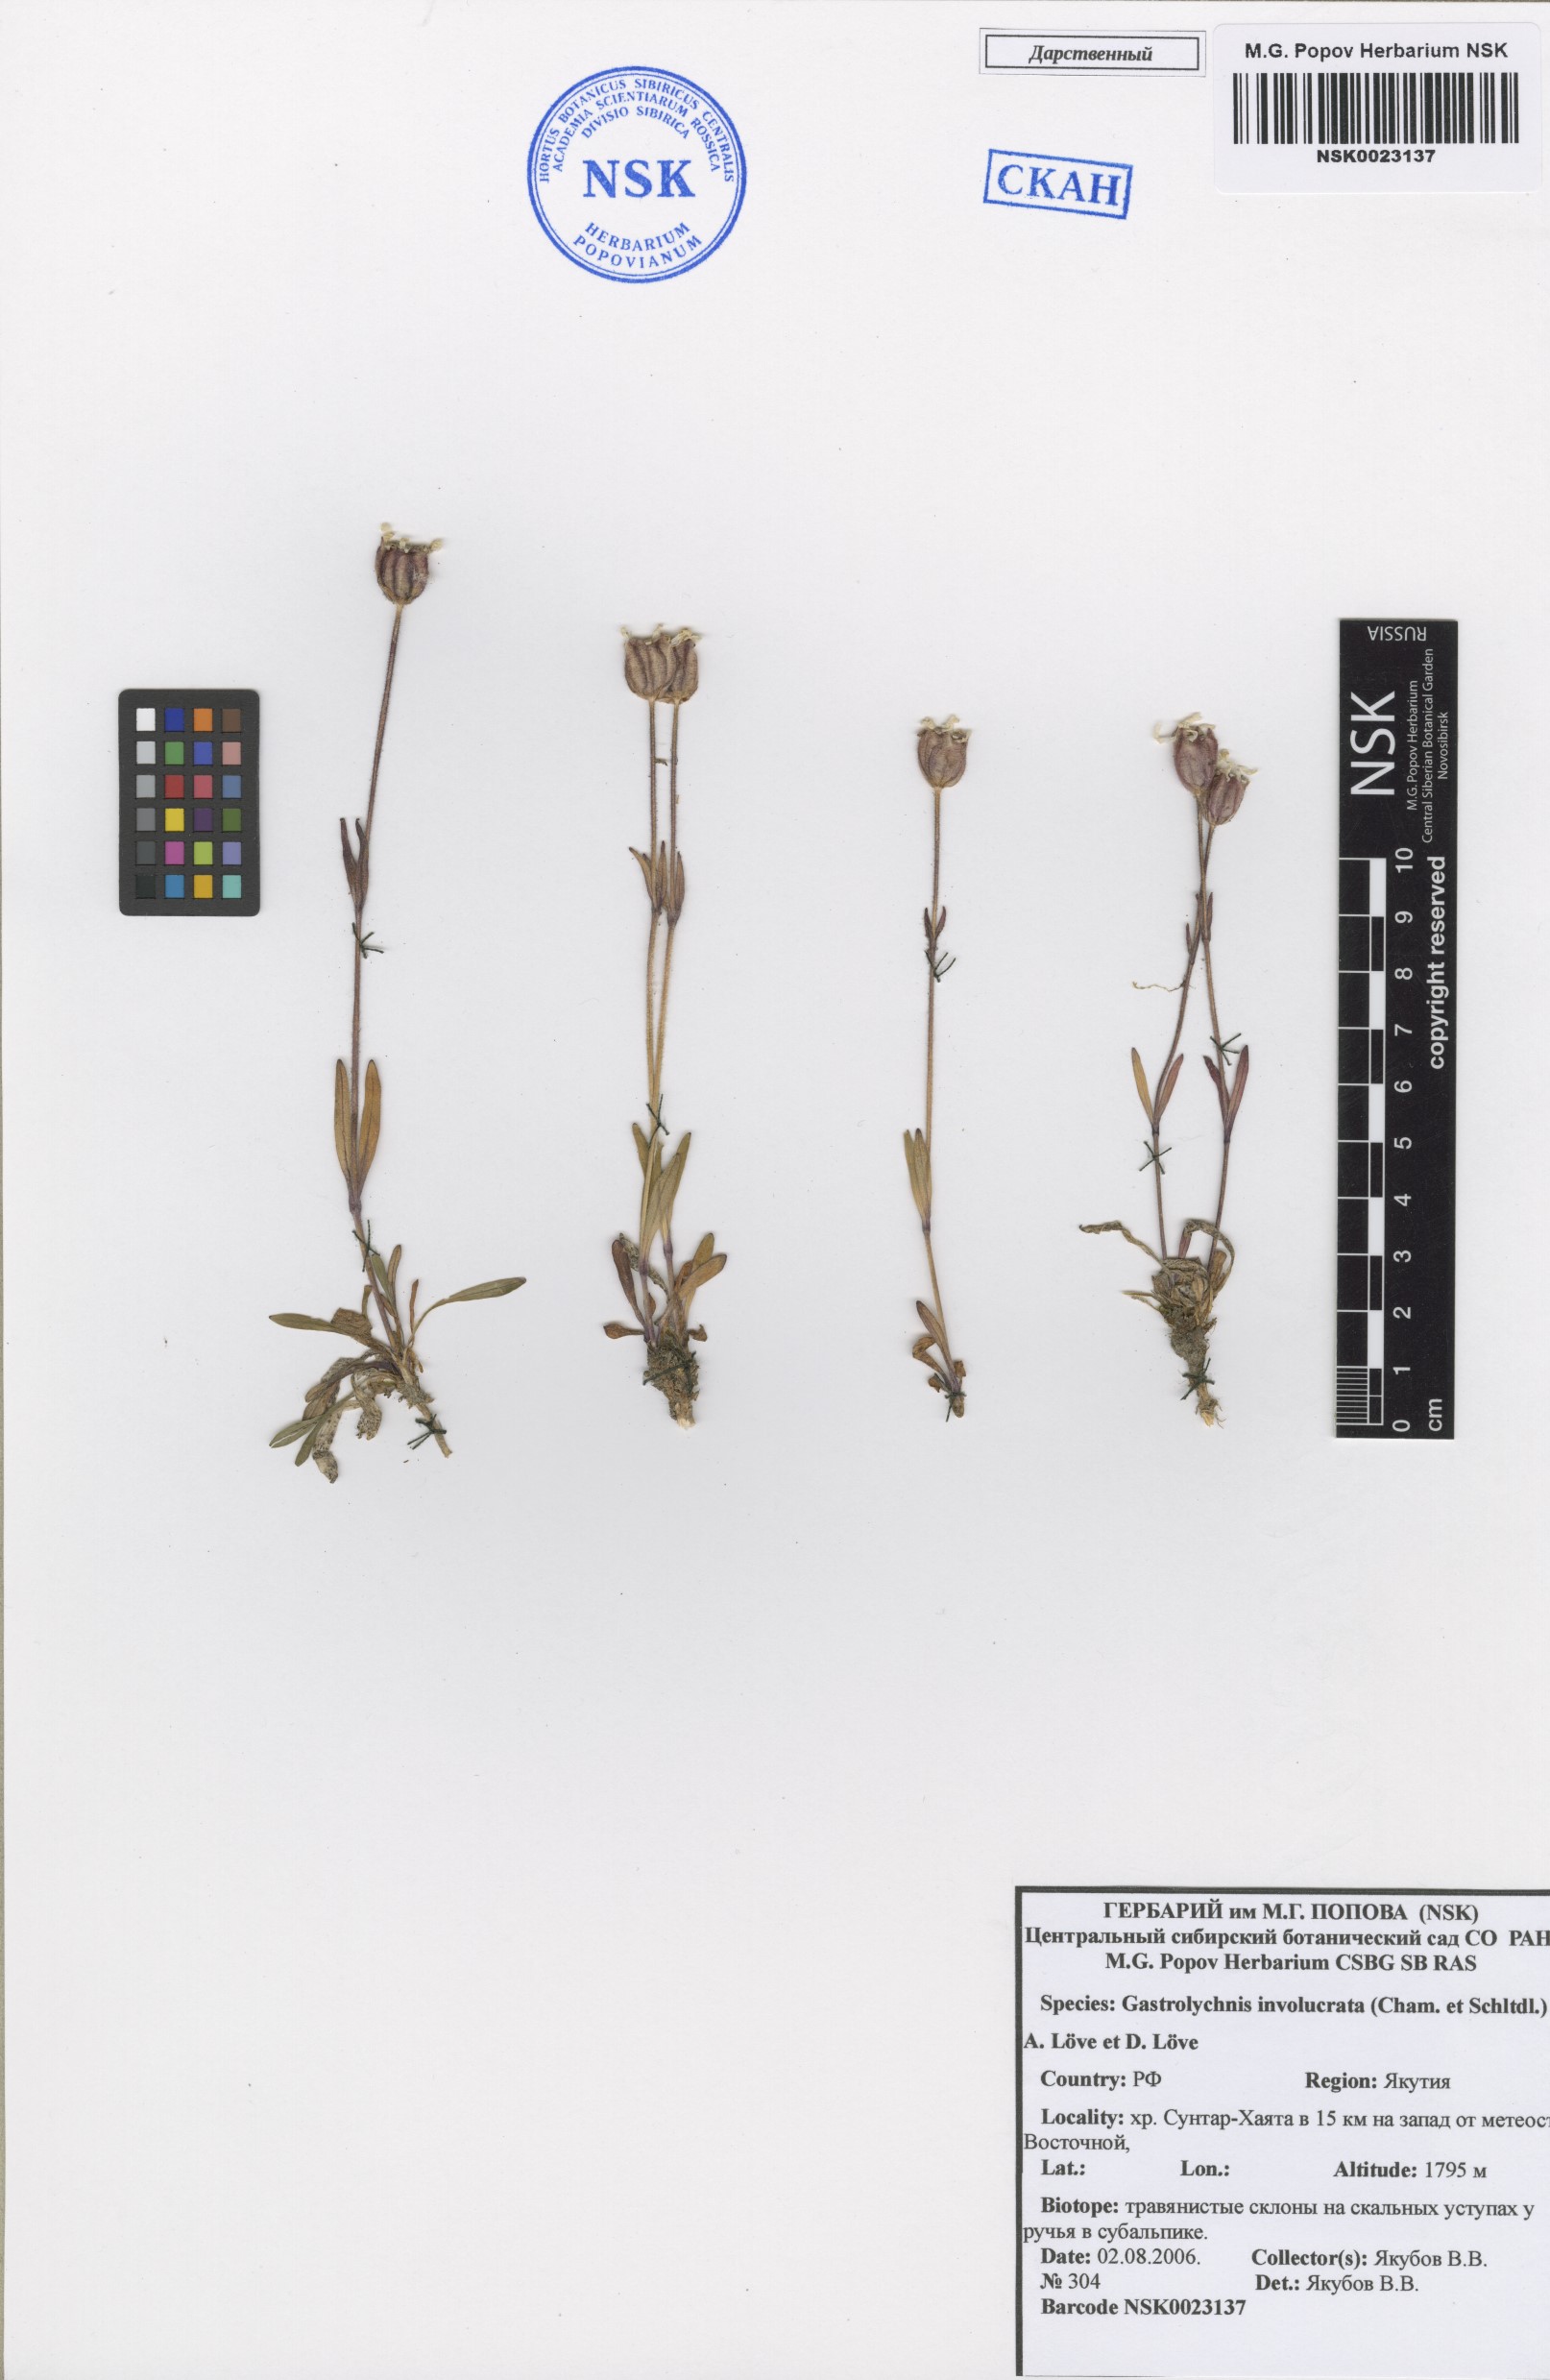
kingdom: Plantae
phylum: Tracheophyta
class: Magnoliopsida
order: Caryophyllales
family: Caryophyllaceae
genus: Silene
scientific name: Silene involucrata
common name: Greater arctic campion
